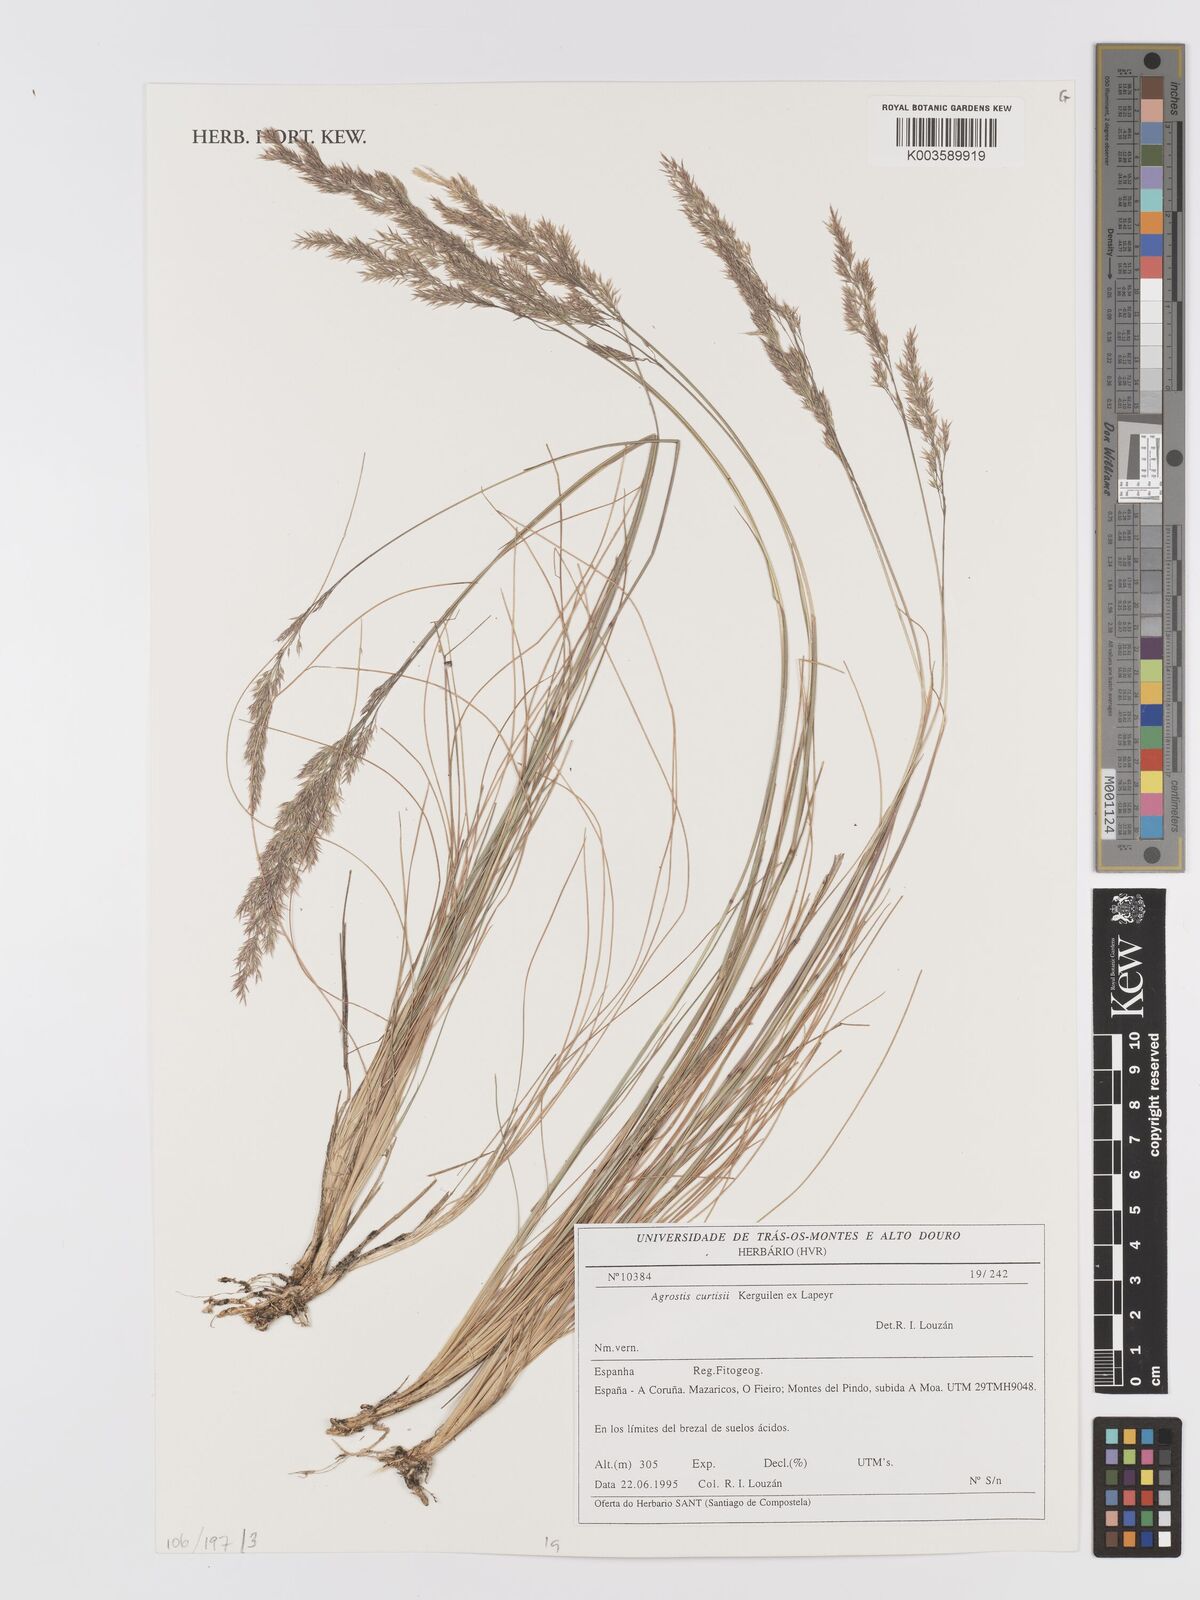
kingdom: Plantae
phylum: Tracheophyta
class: Liliopsida
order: Poales
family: Poaceae
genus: Alpagrostis
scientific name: Alpagrostis setacea
